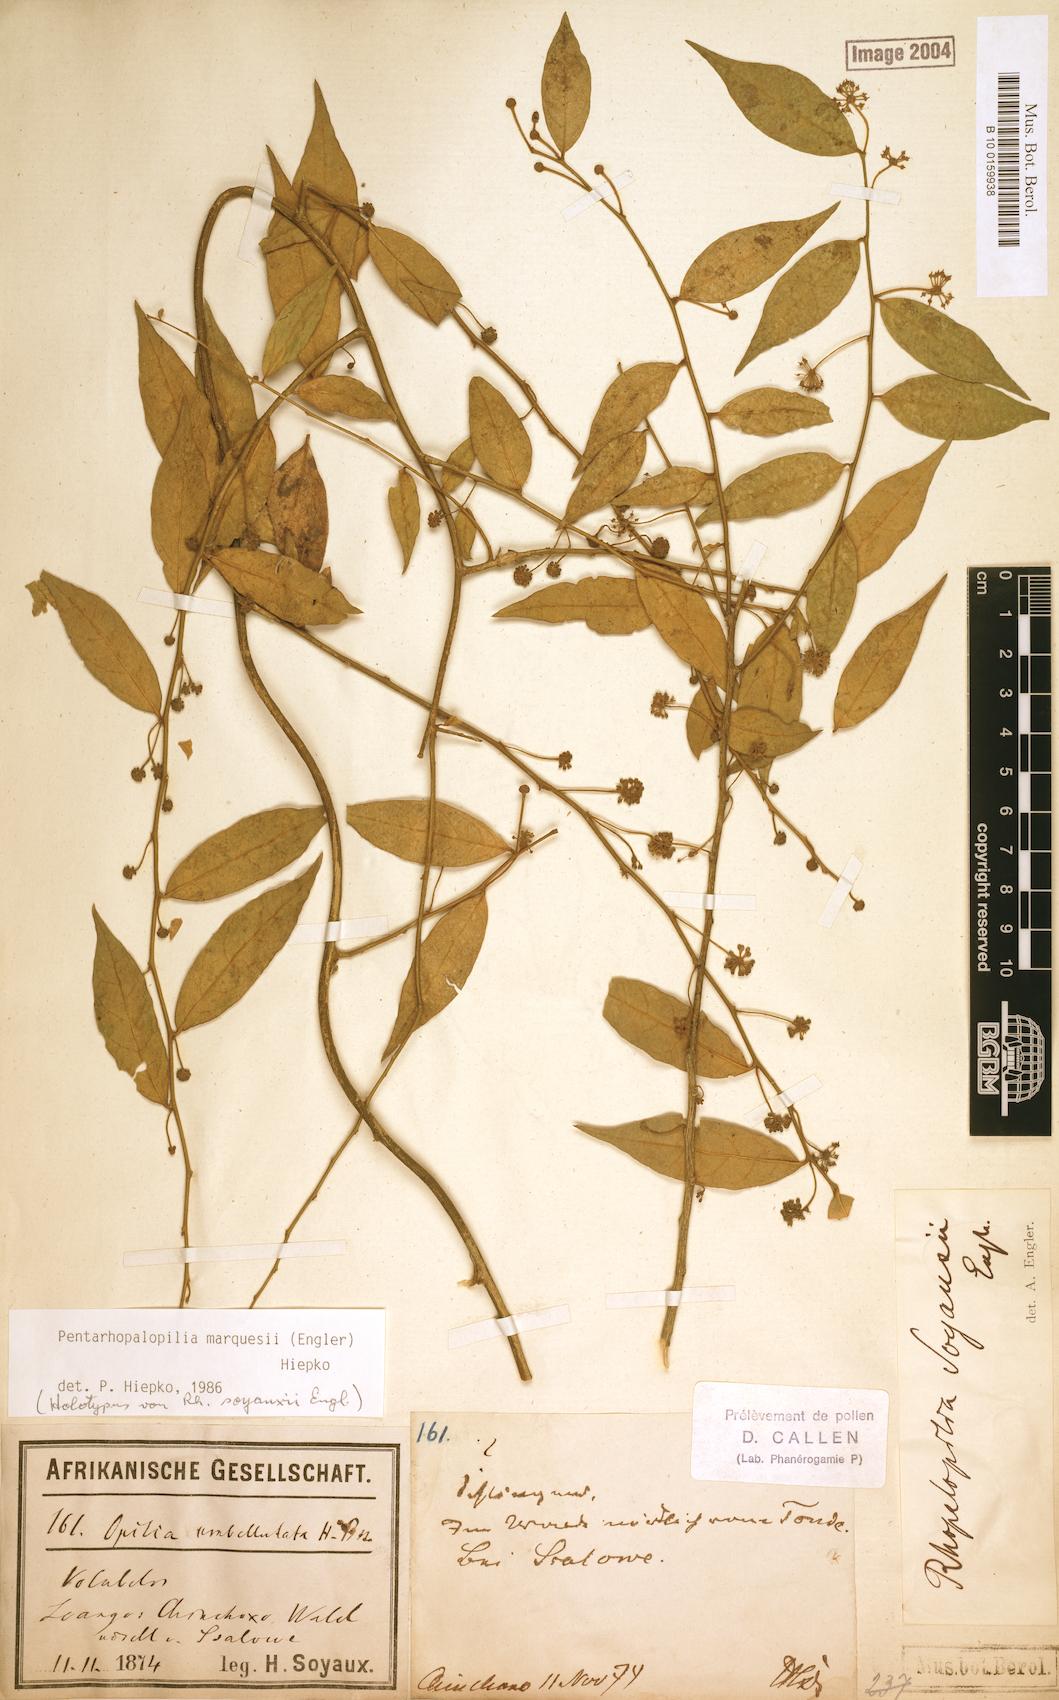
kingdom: Plantae
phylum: Tracheophyta
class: Magnoliopsida
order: Santalales
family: Opiliaceae
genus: Pentarhopalopilia
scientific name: Pentarhopalopilia marquesii
